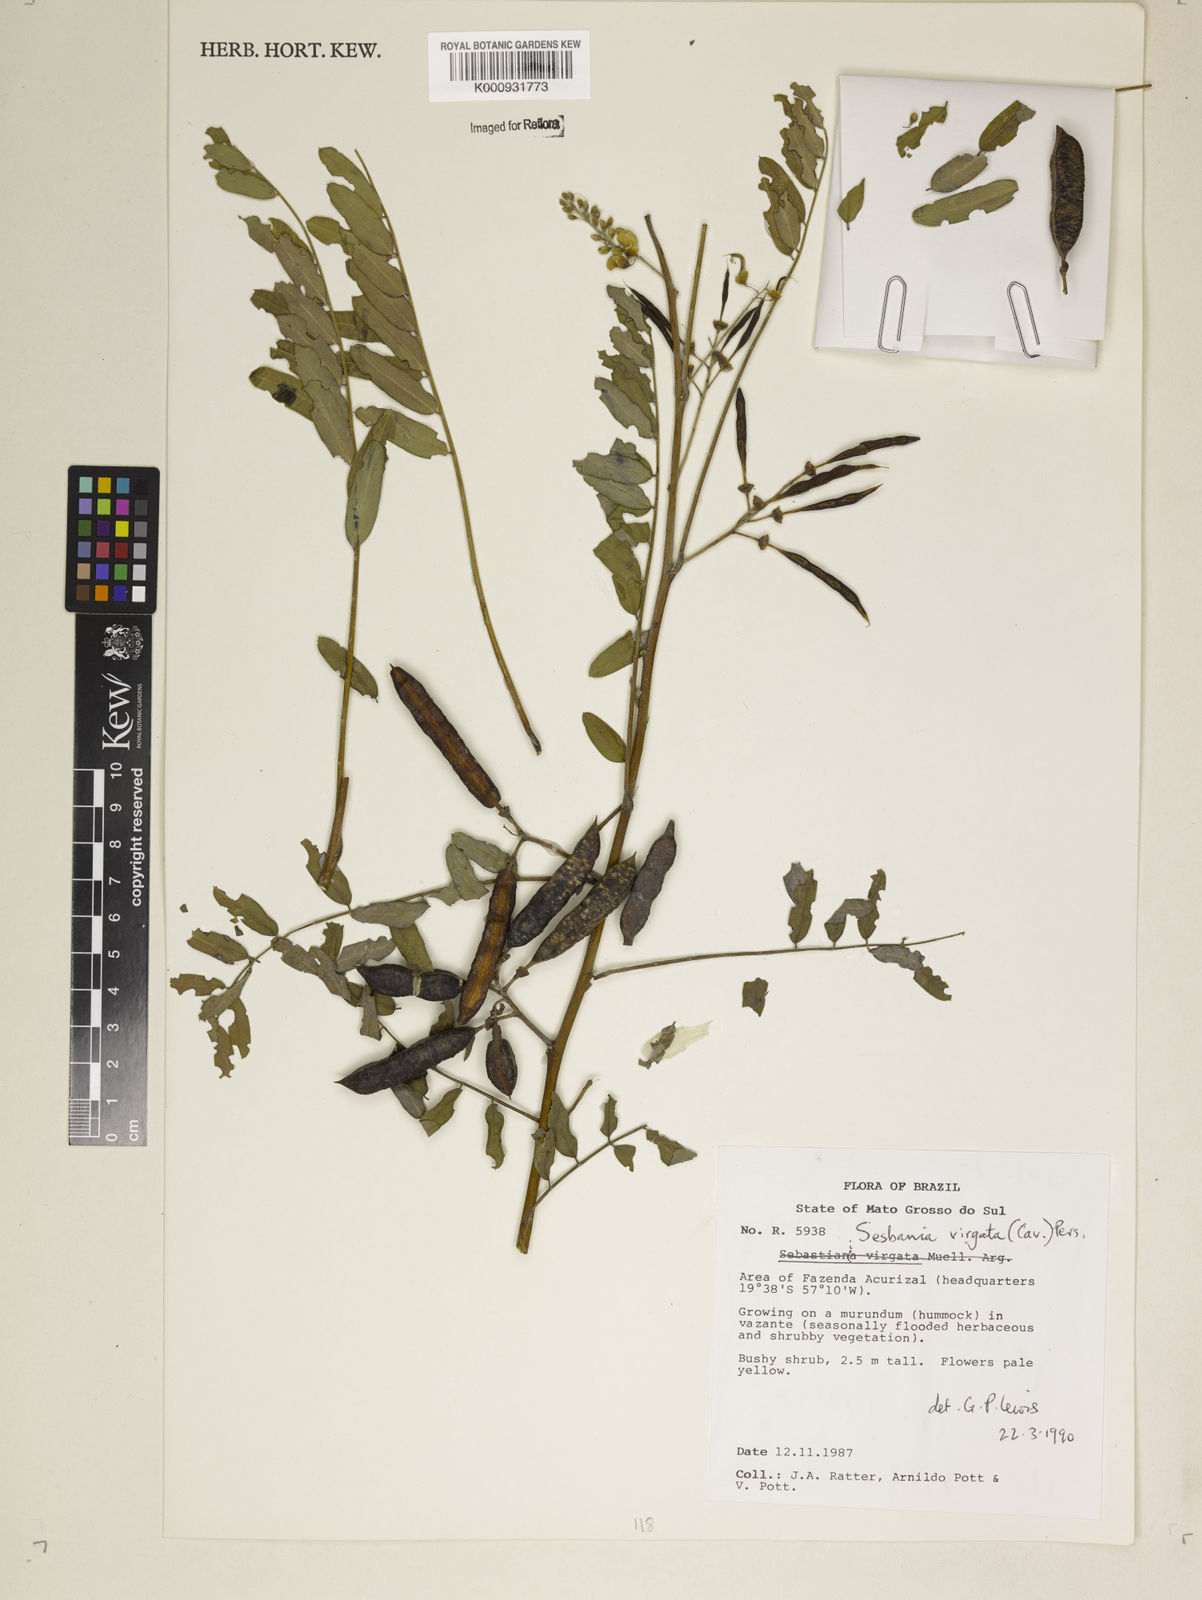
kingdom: Plantae
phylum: Tracheophyta
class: Magnoliopsida
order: Fabales
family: Fabaceae
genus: Sesbania
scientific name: Sesbania
